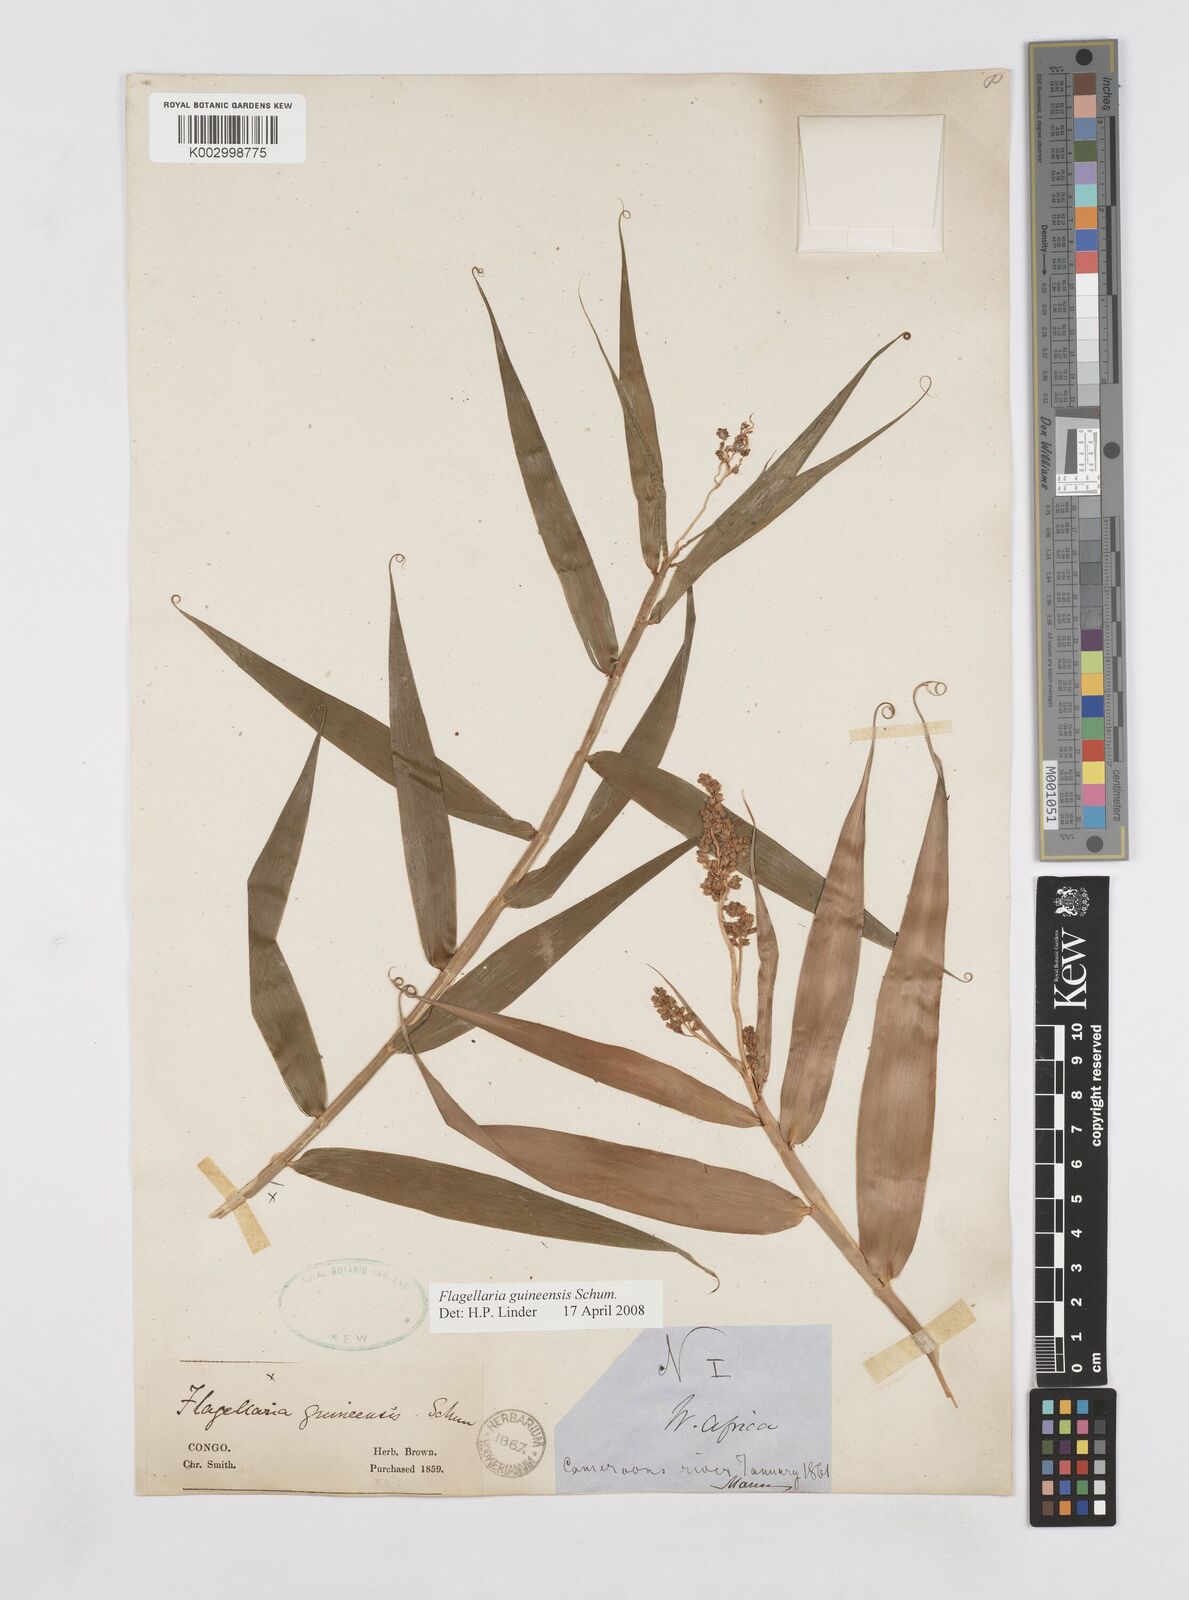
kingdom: Plantae
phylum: Tracheophyta
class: Liliopsida
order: Poales
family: Flagellariaceae
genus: Flagellaria
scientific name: Flagellaria guineensis
